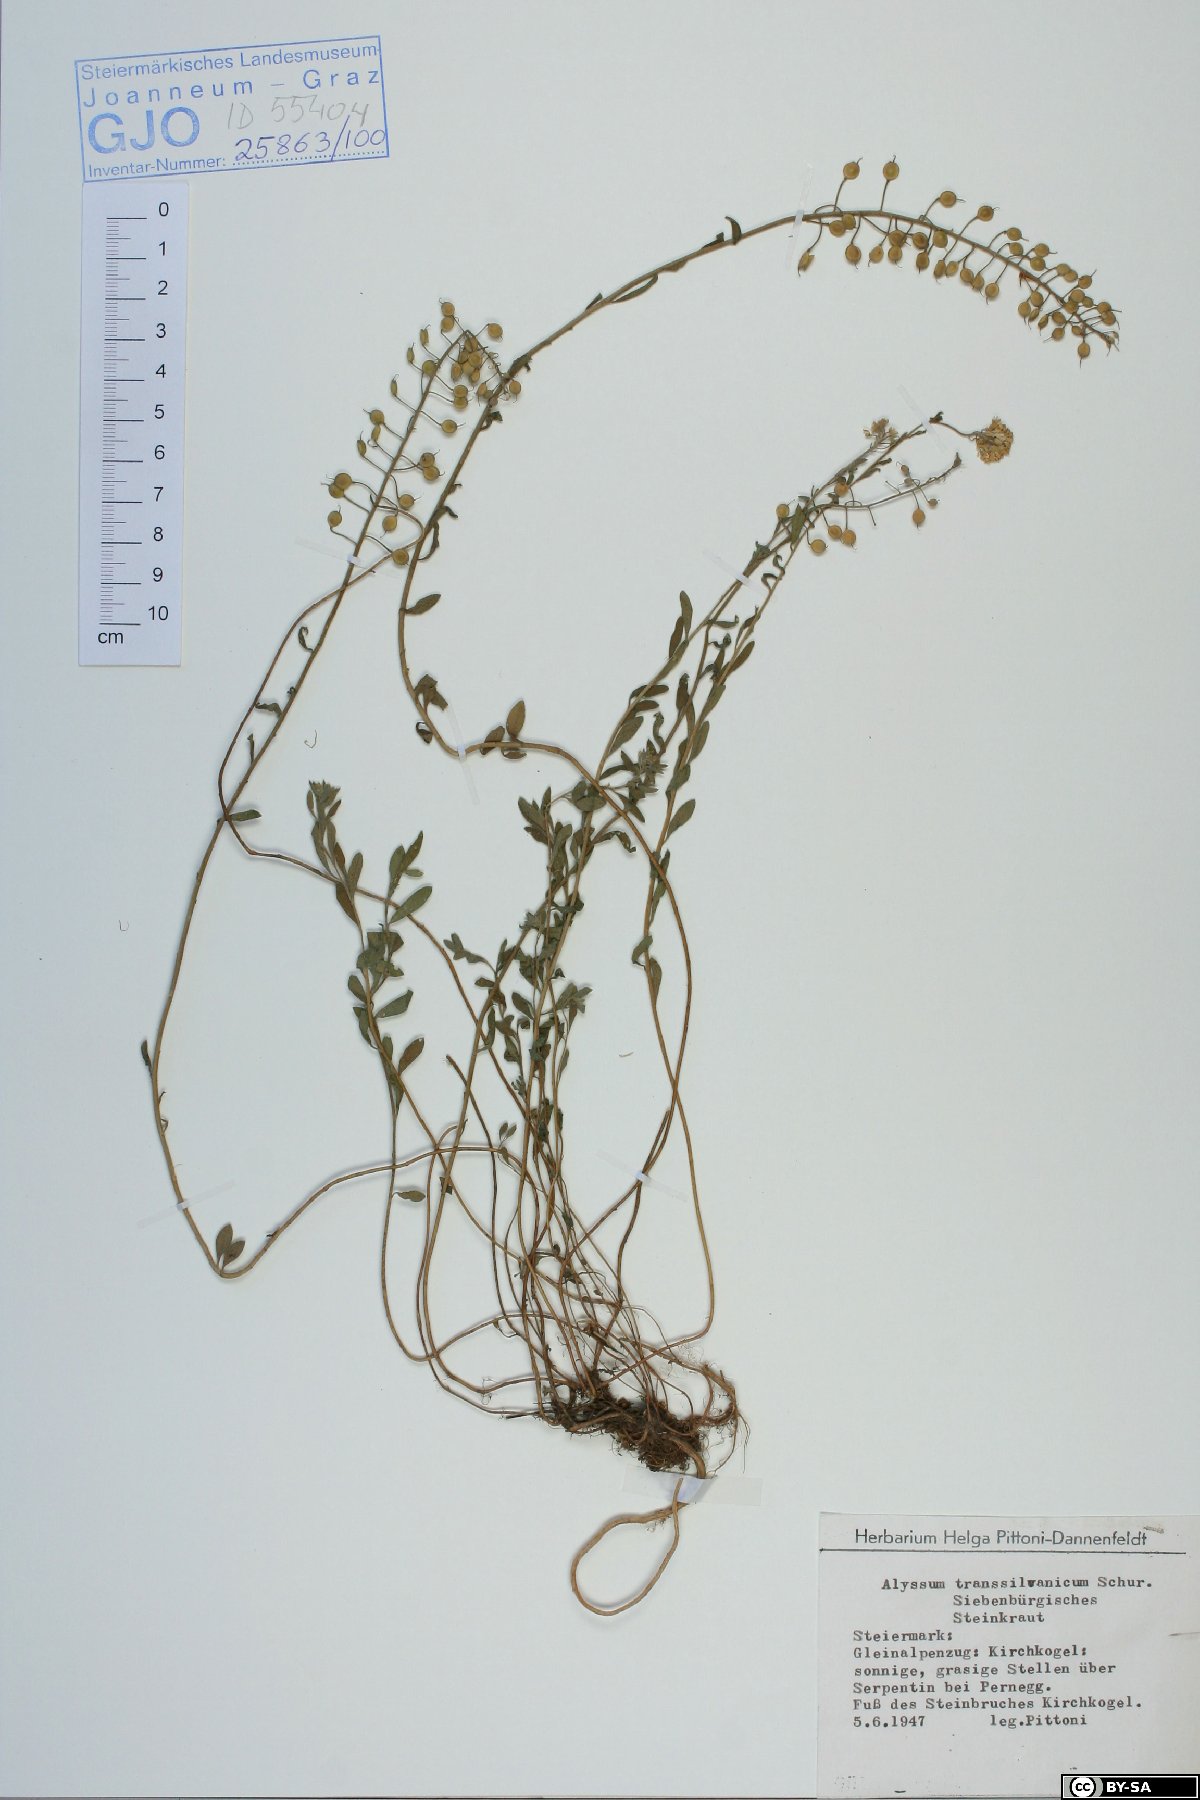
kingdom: Plantae
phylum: Tracheophyta
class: Magnoliopsida
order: Brassicales
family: Brassicaceae
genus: Alyssum
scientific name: Alyssum repens
